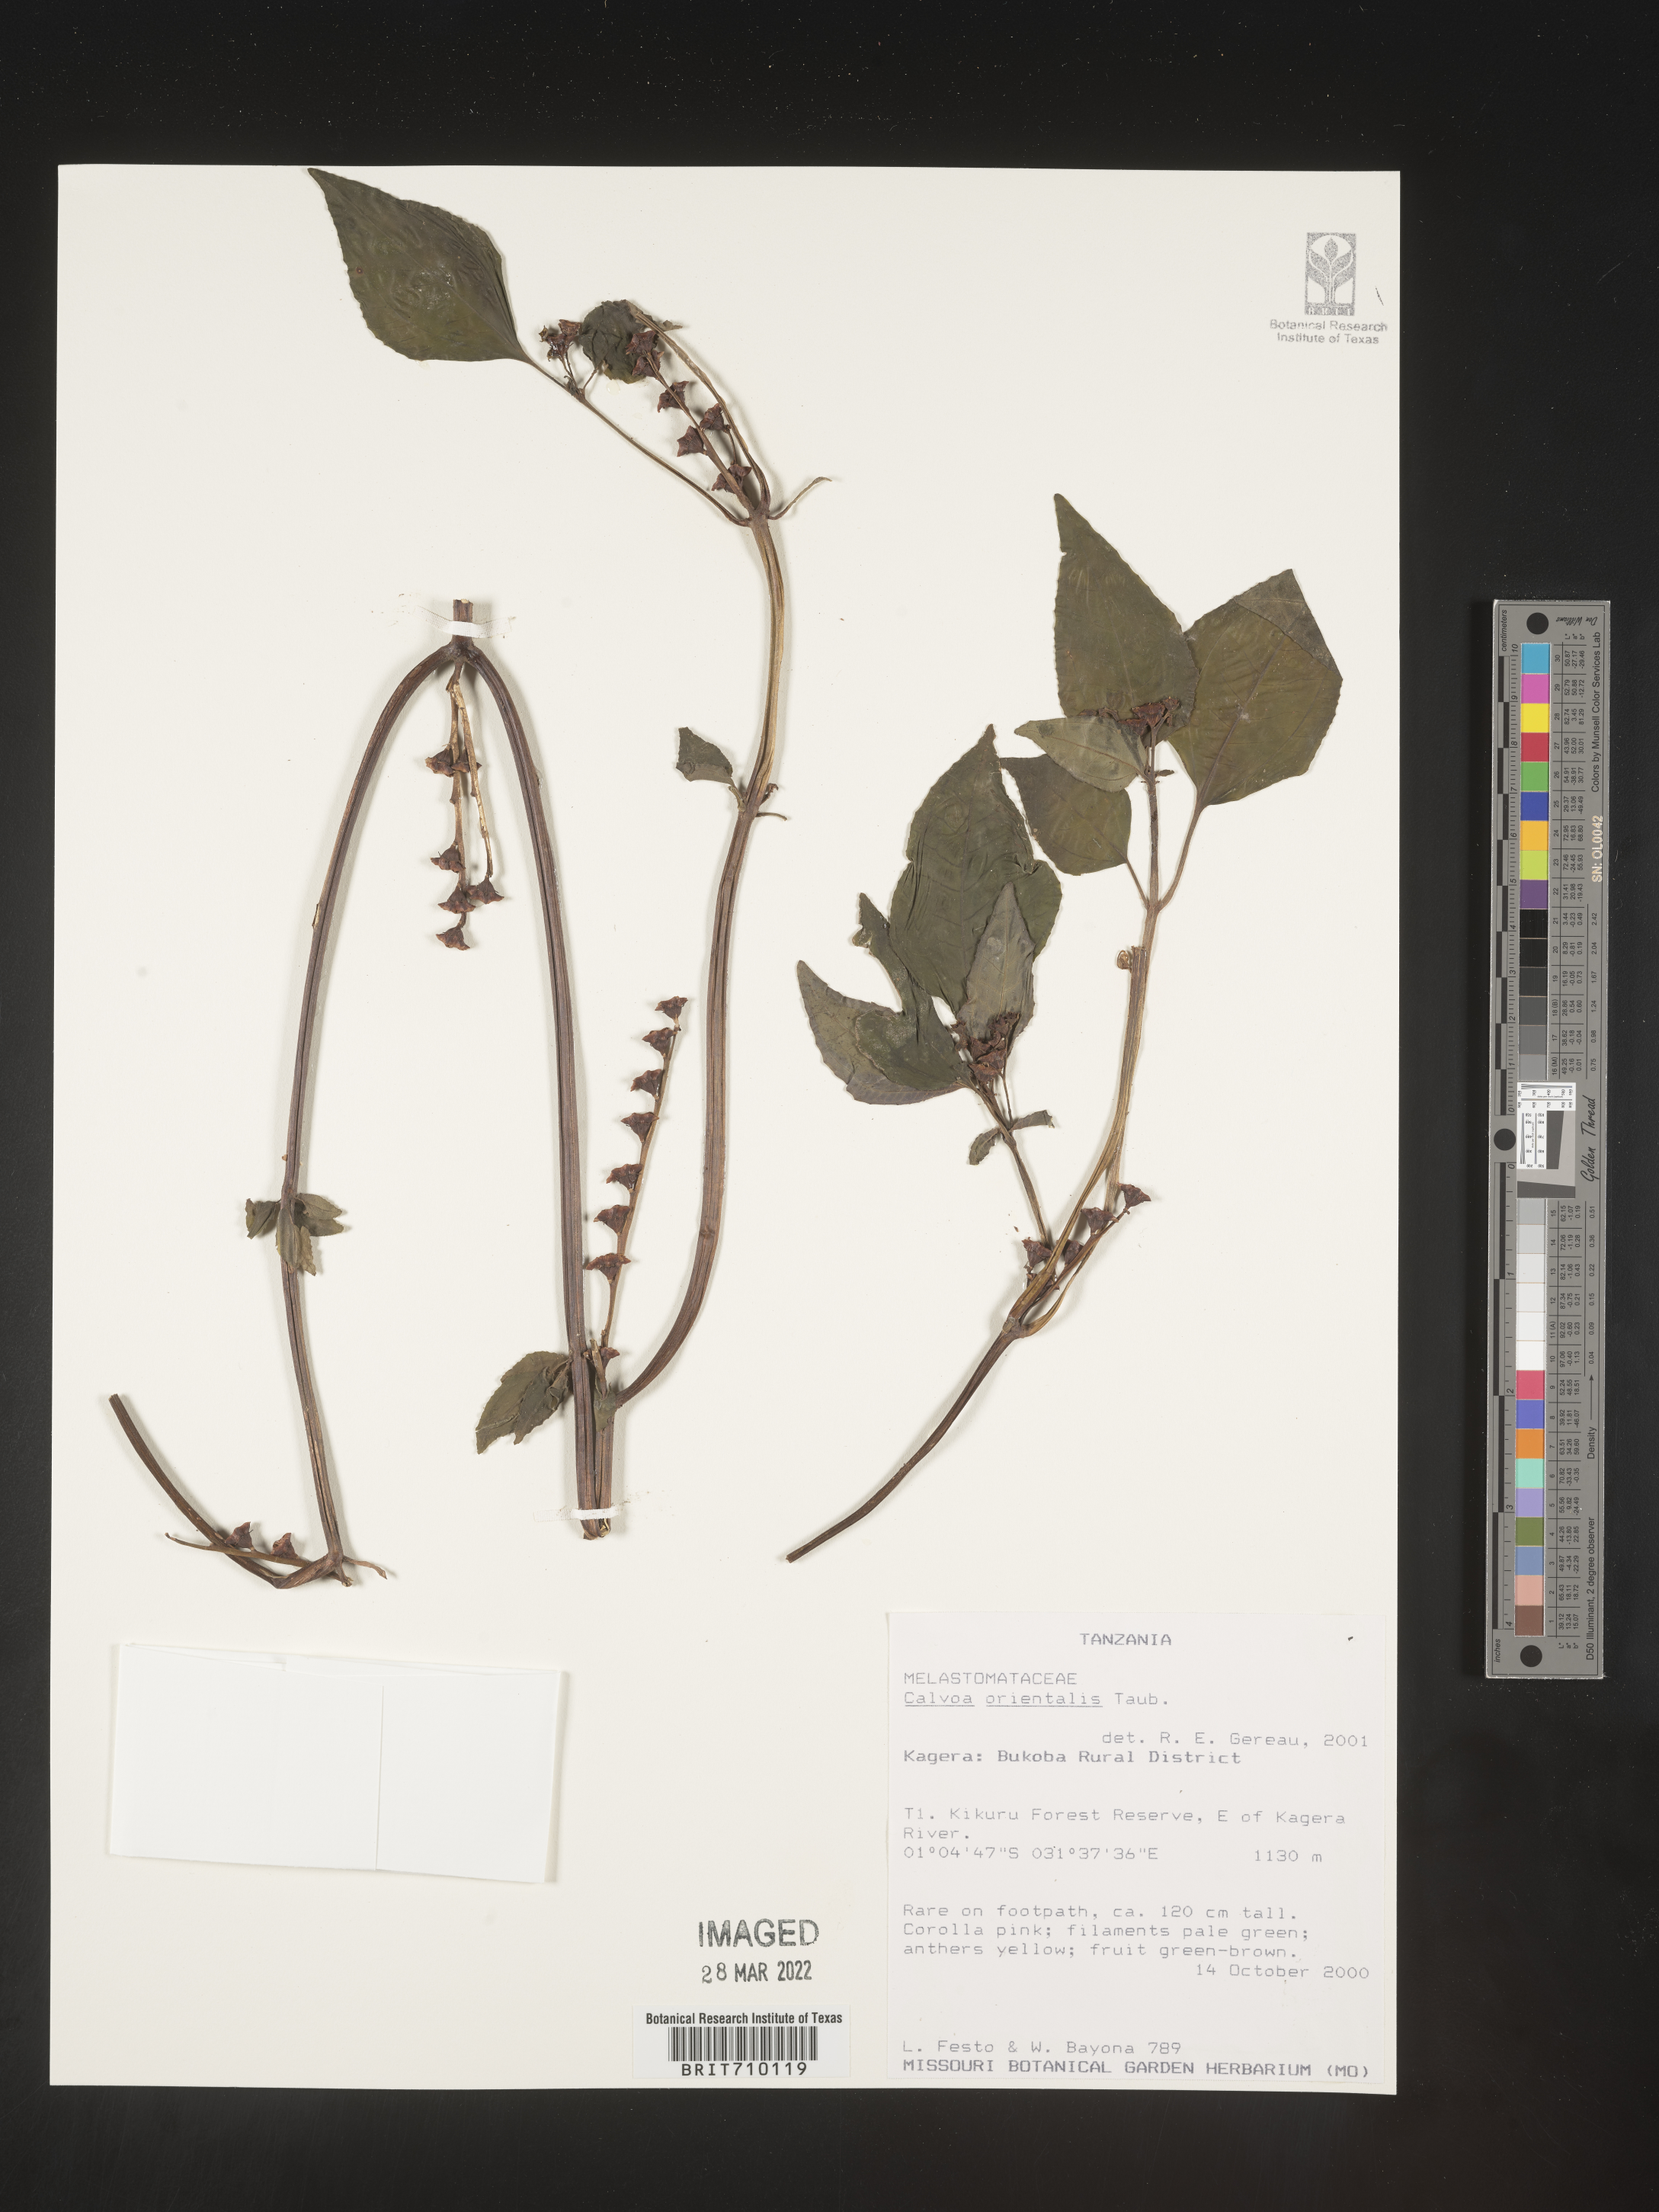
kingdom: Plantae
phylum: Tracheophyta
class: Magnoliopsida
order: Myrtales
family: Melastomataceae
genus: Calvoa
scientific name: Calvoa
